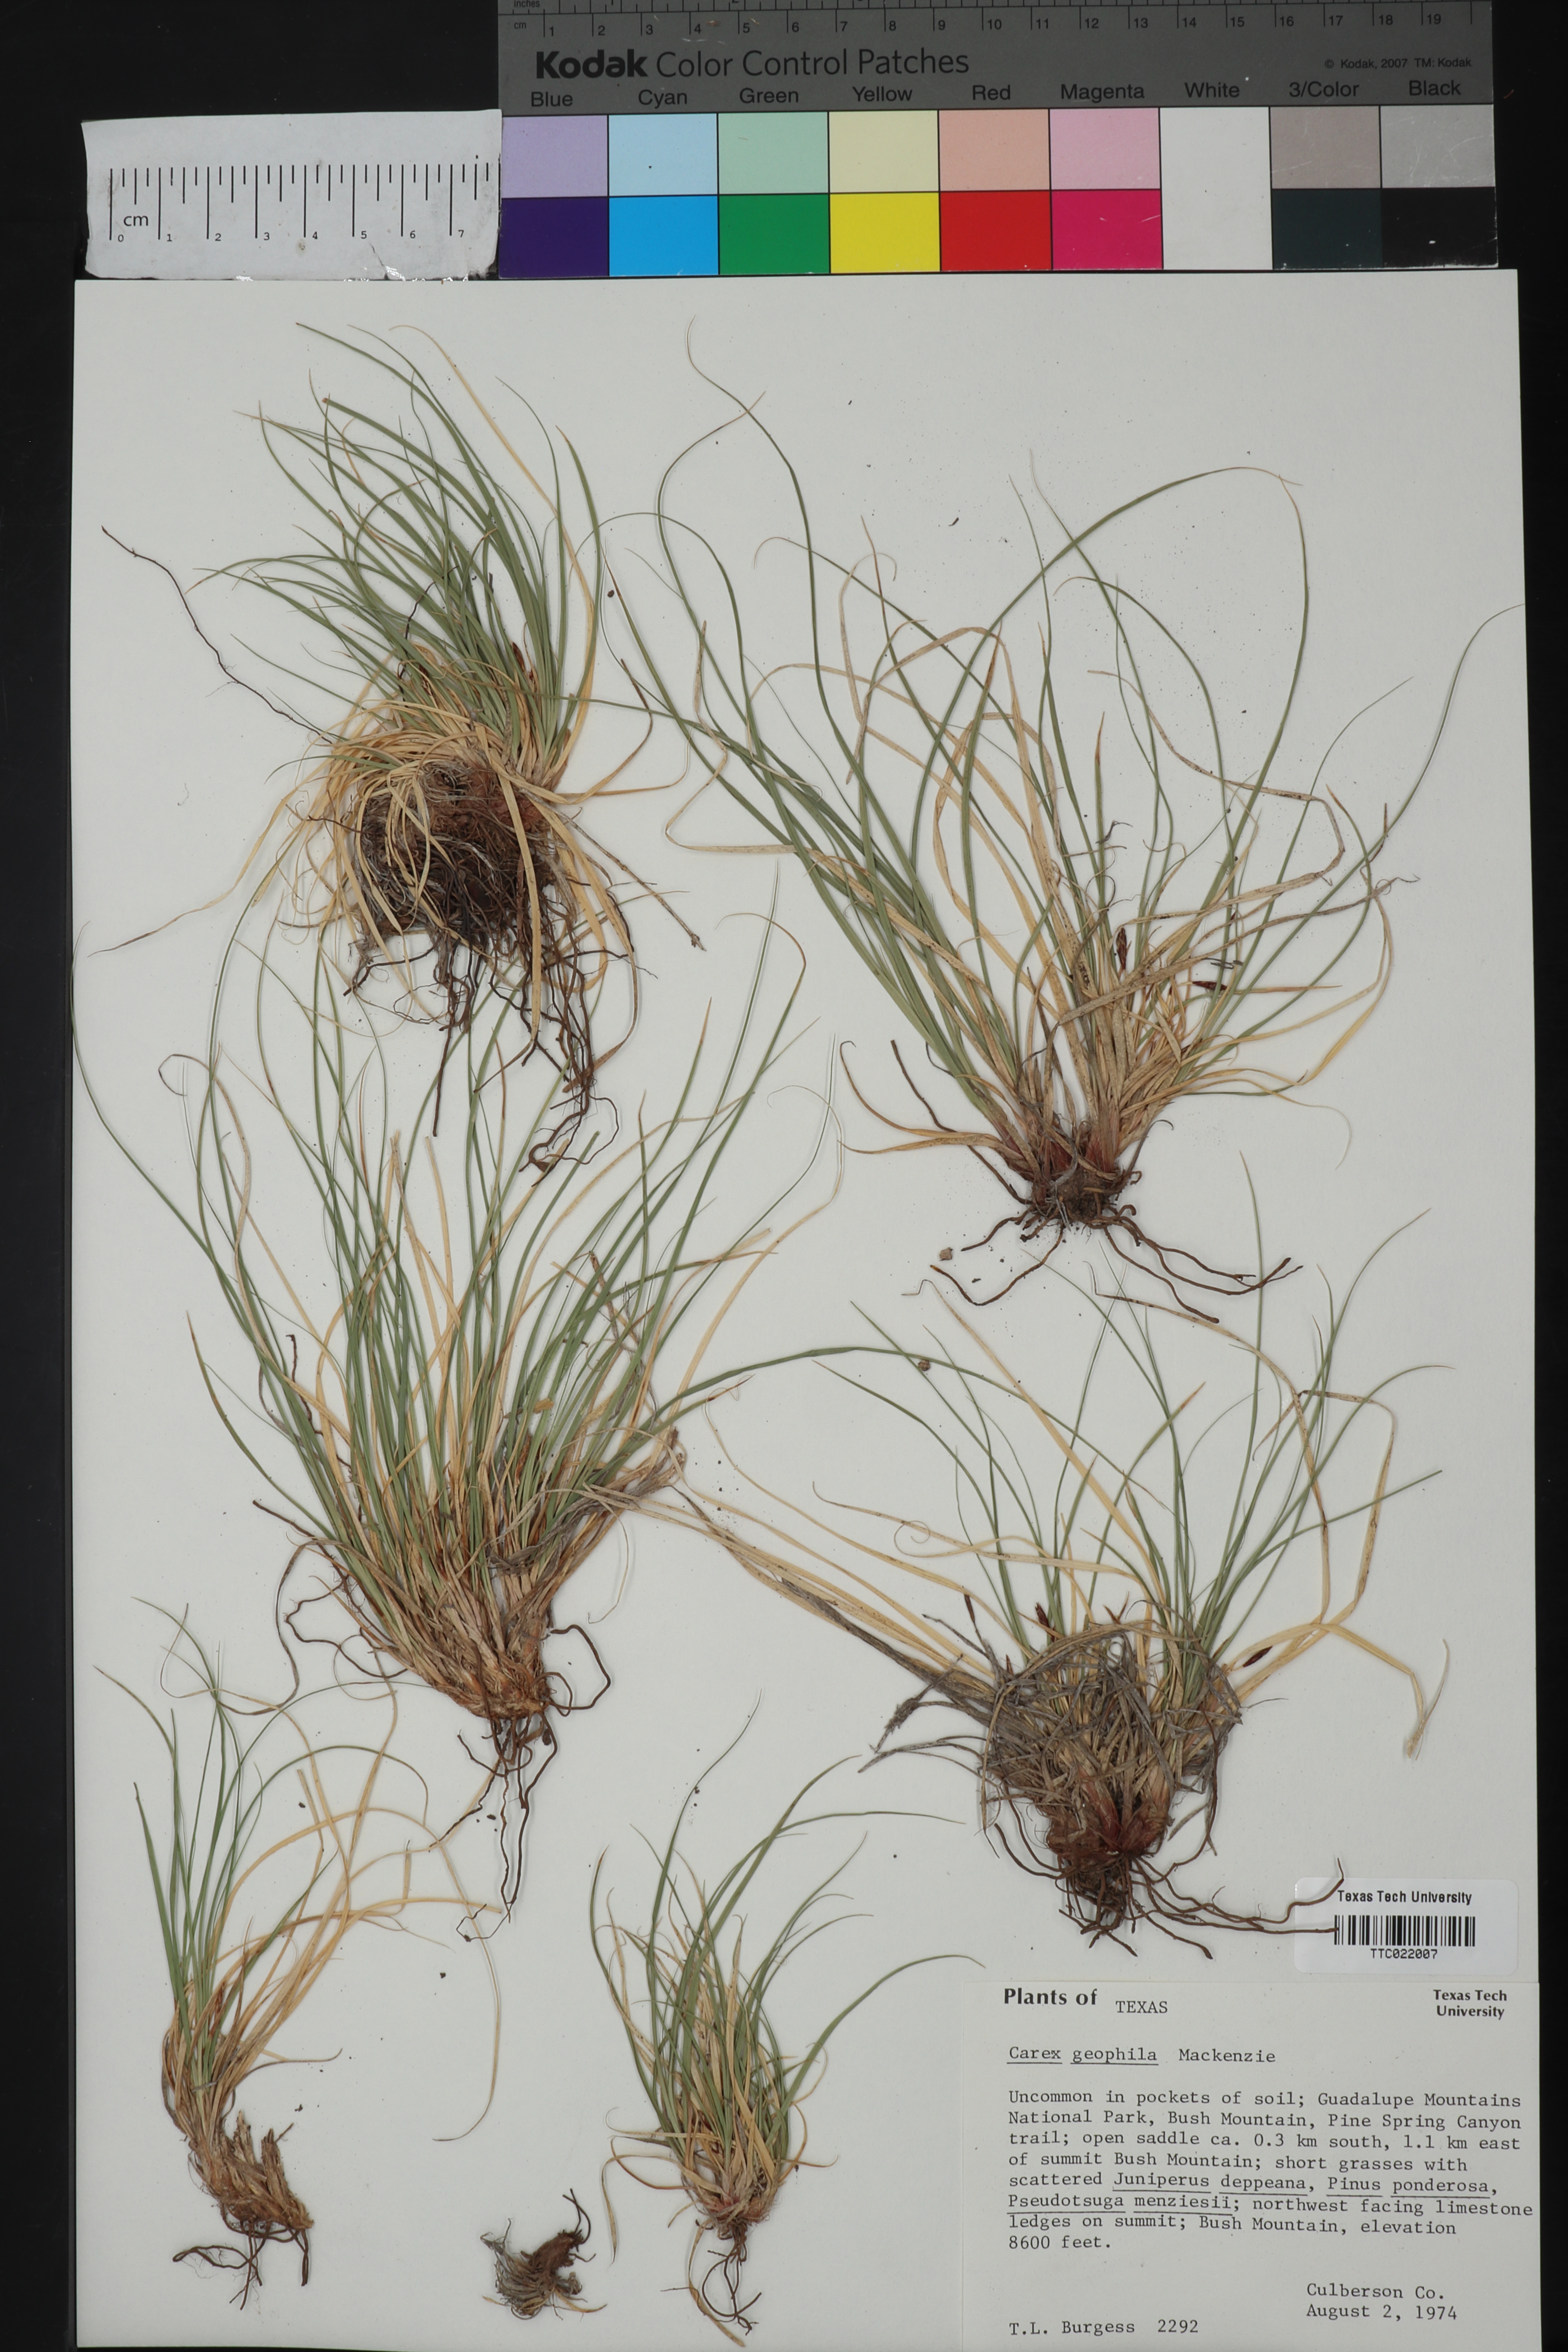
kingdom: Plantae
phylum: Tracheophyta
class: Liliopsida
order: Poales
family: Cyperaceae
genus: Carex
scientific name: Carex geophila
